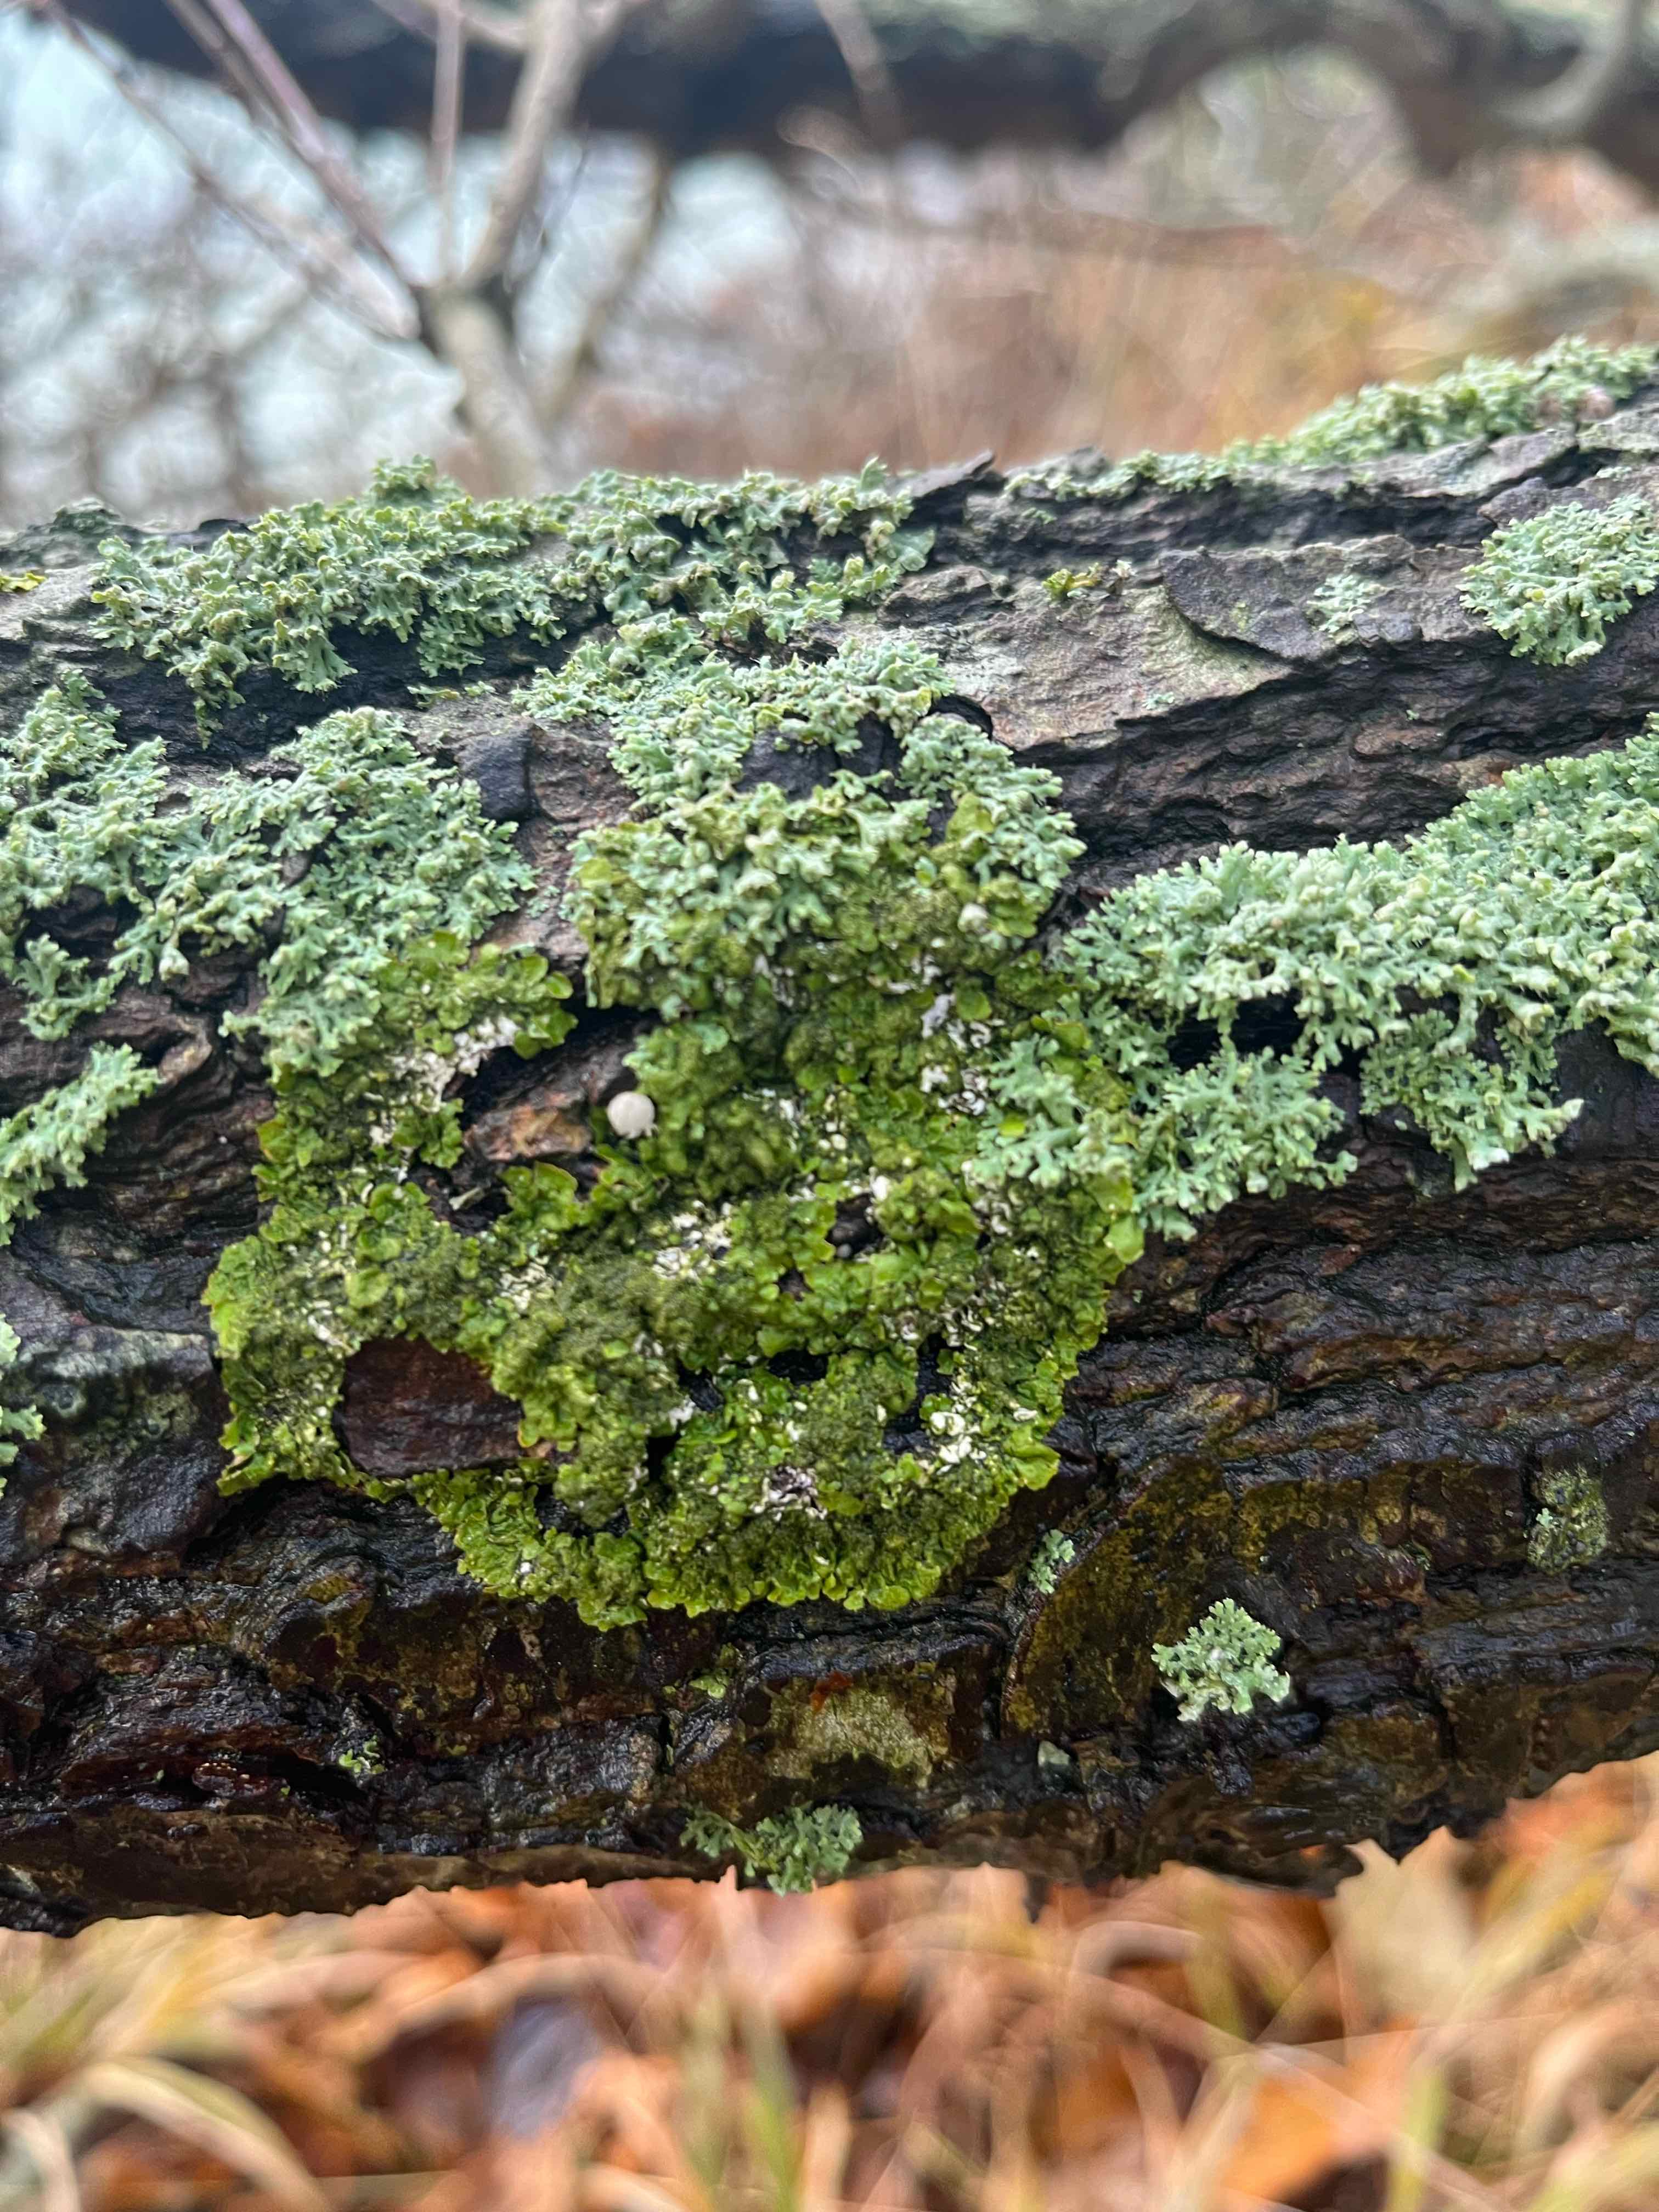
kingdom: Fungi
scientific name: Fungi
